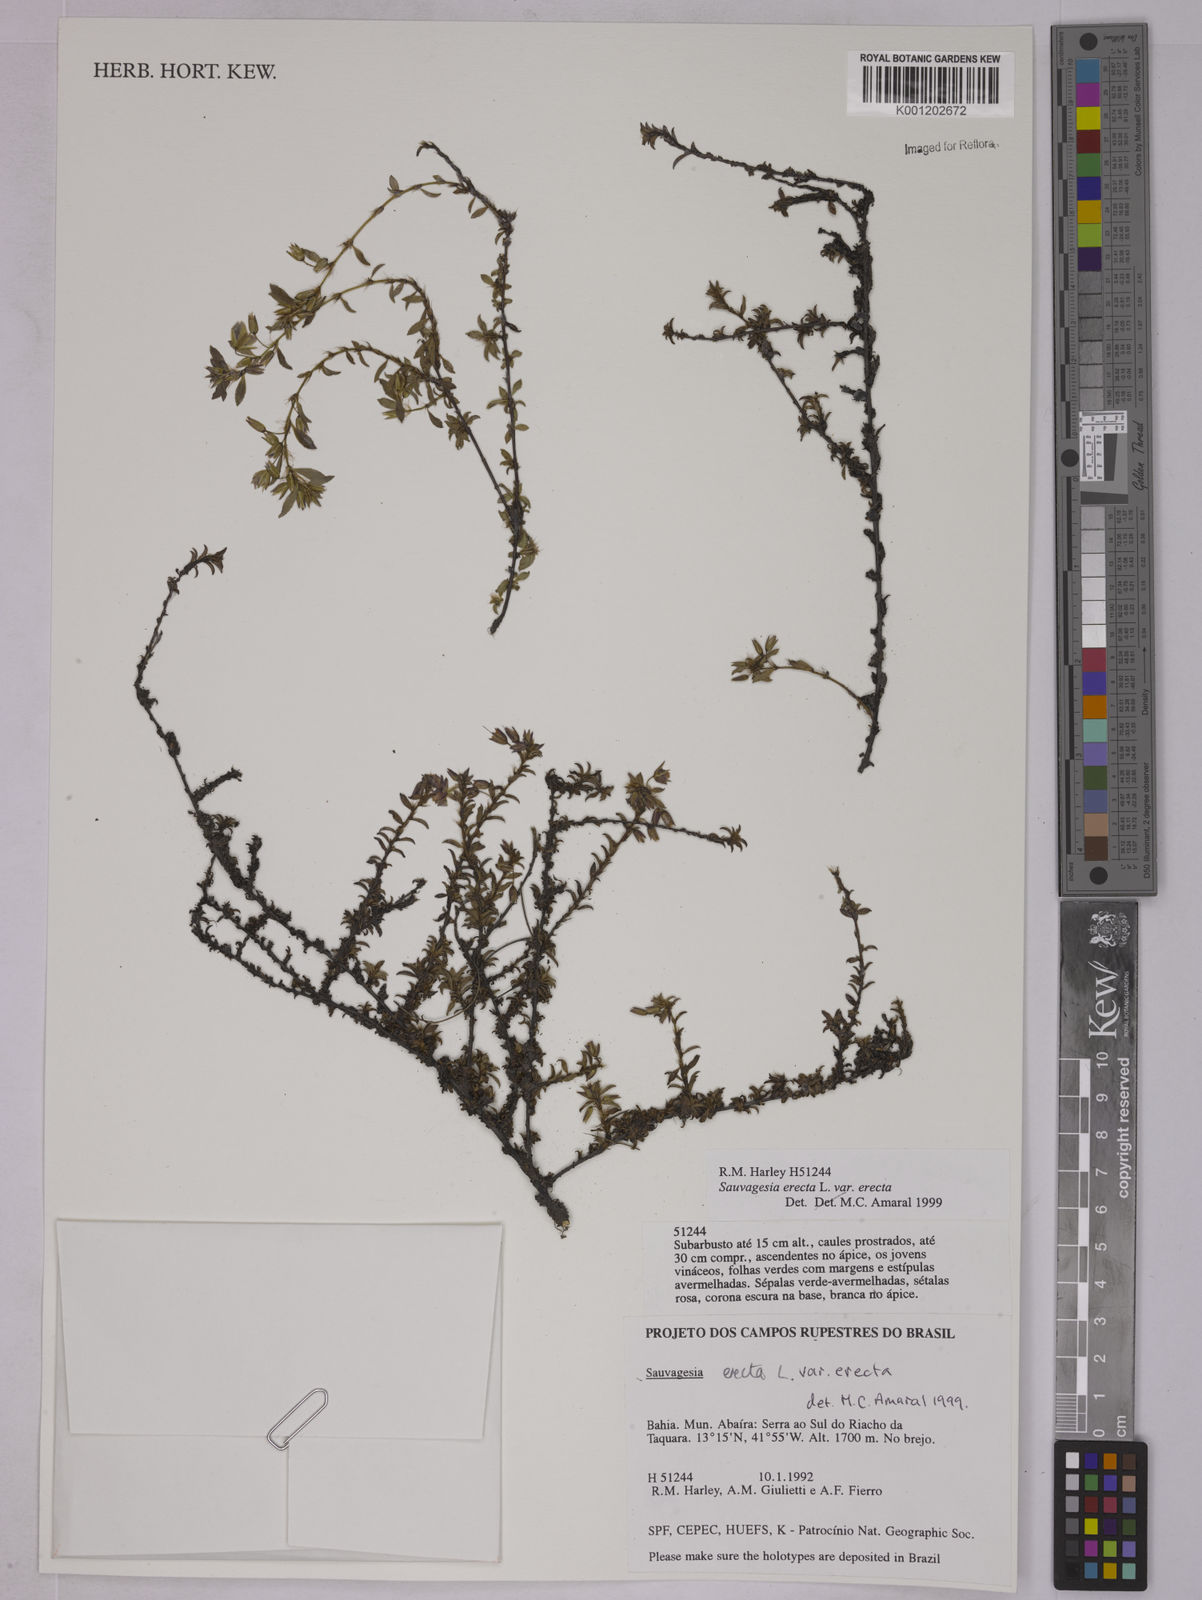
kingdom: Plantae
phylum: Tracheophyta
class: Magnoliopsida
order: Malpighiales
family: Ochnaceae
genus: Sauvagesia
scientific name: Sauvagesia erecta
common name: Creole tea
